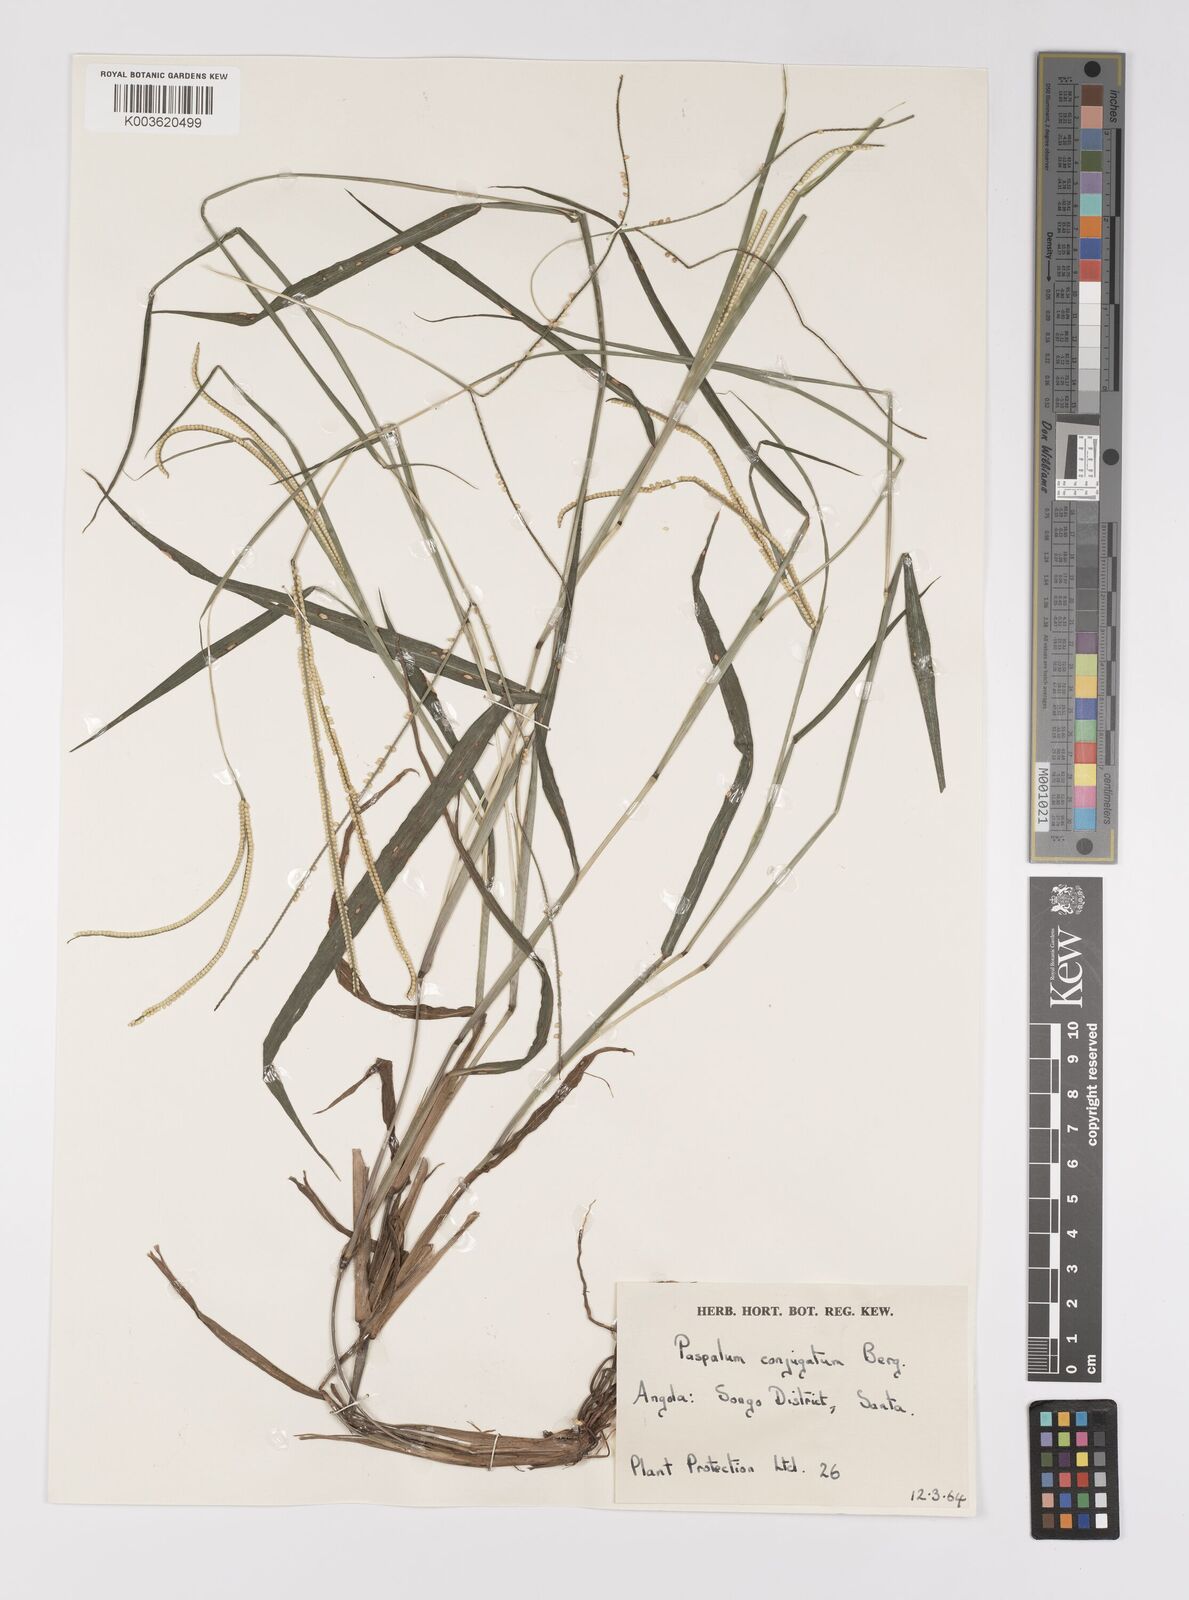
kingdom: Plantae
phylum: Tracheophyta
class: Liliopsida
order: Poales
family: Poaceae
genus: Paspalum
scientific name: Paspalum conjugatum
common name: Hilograss
